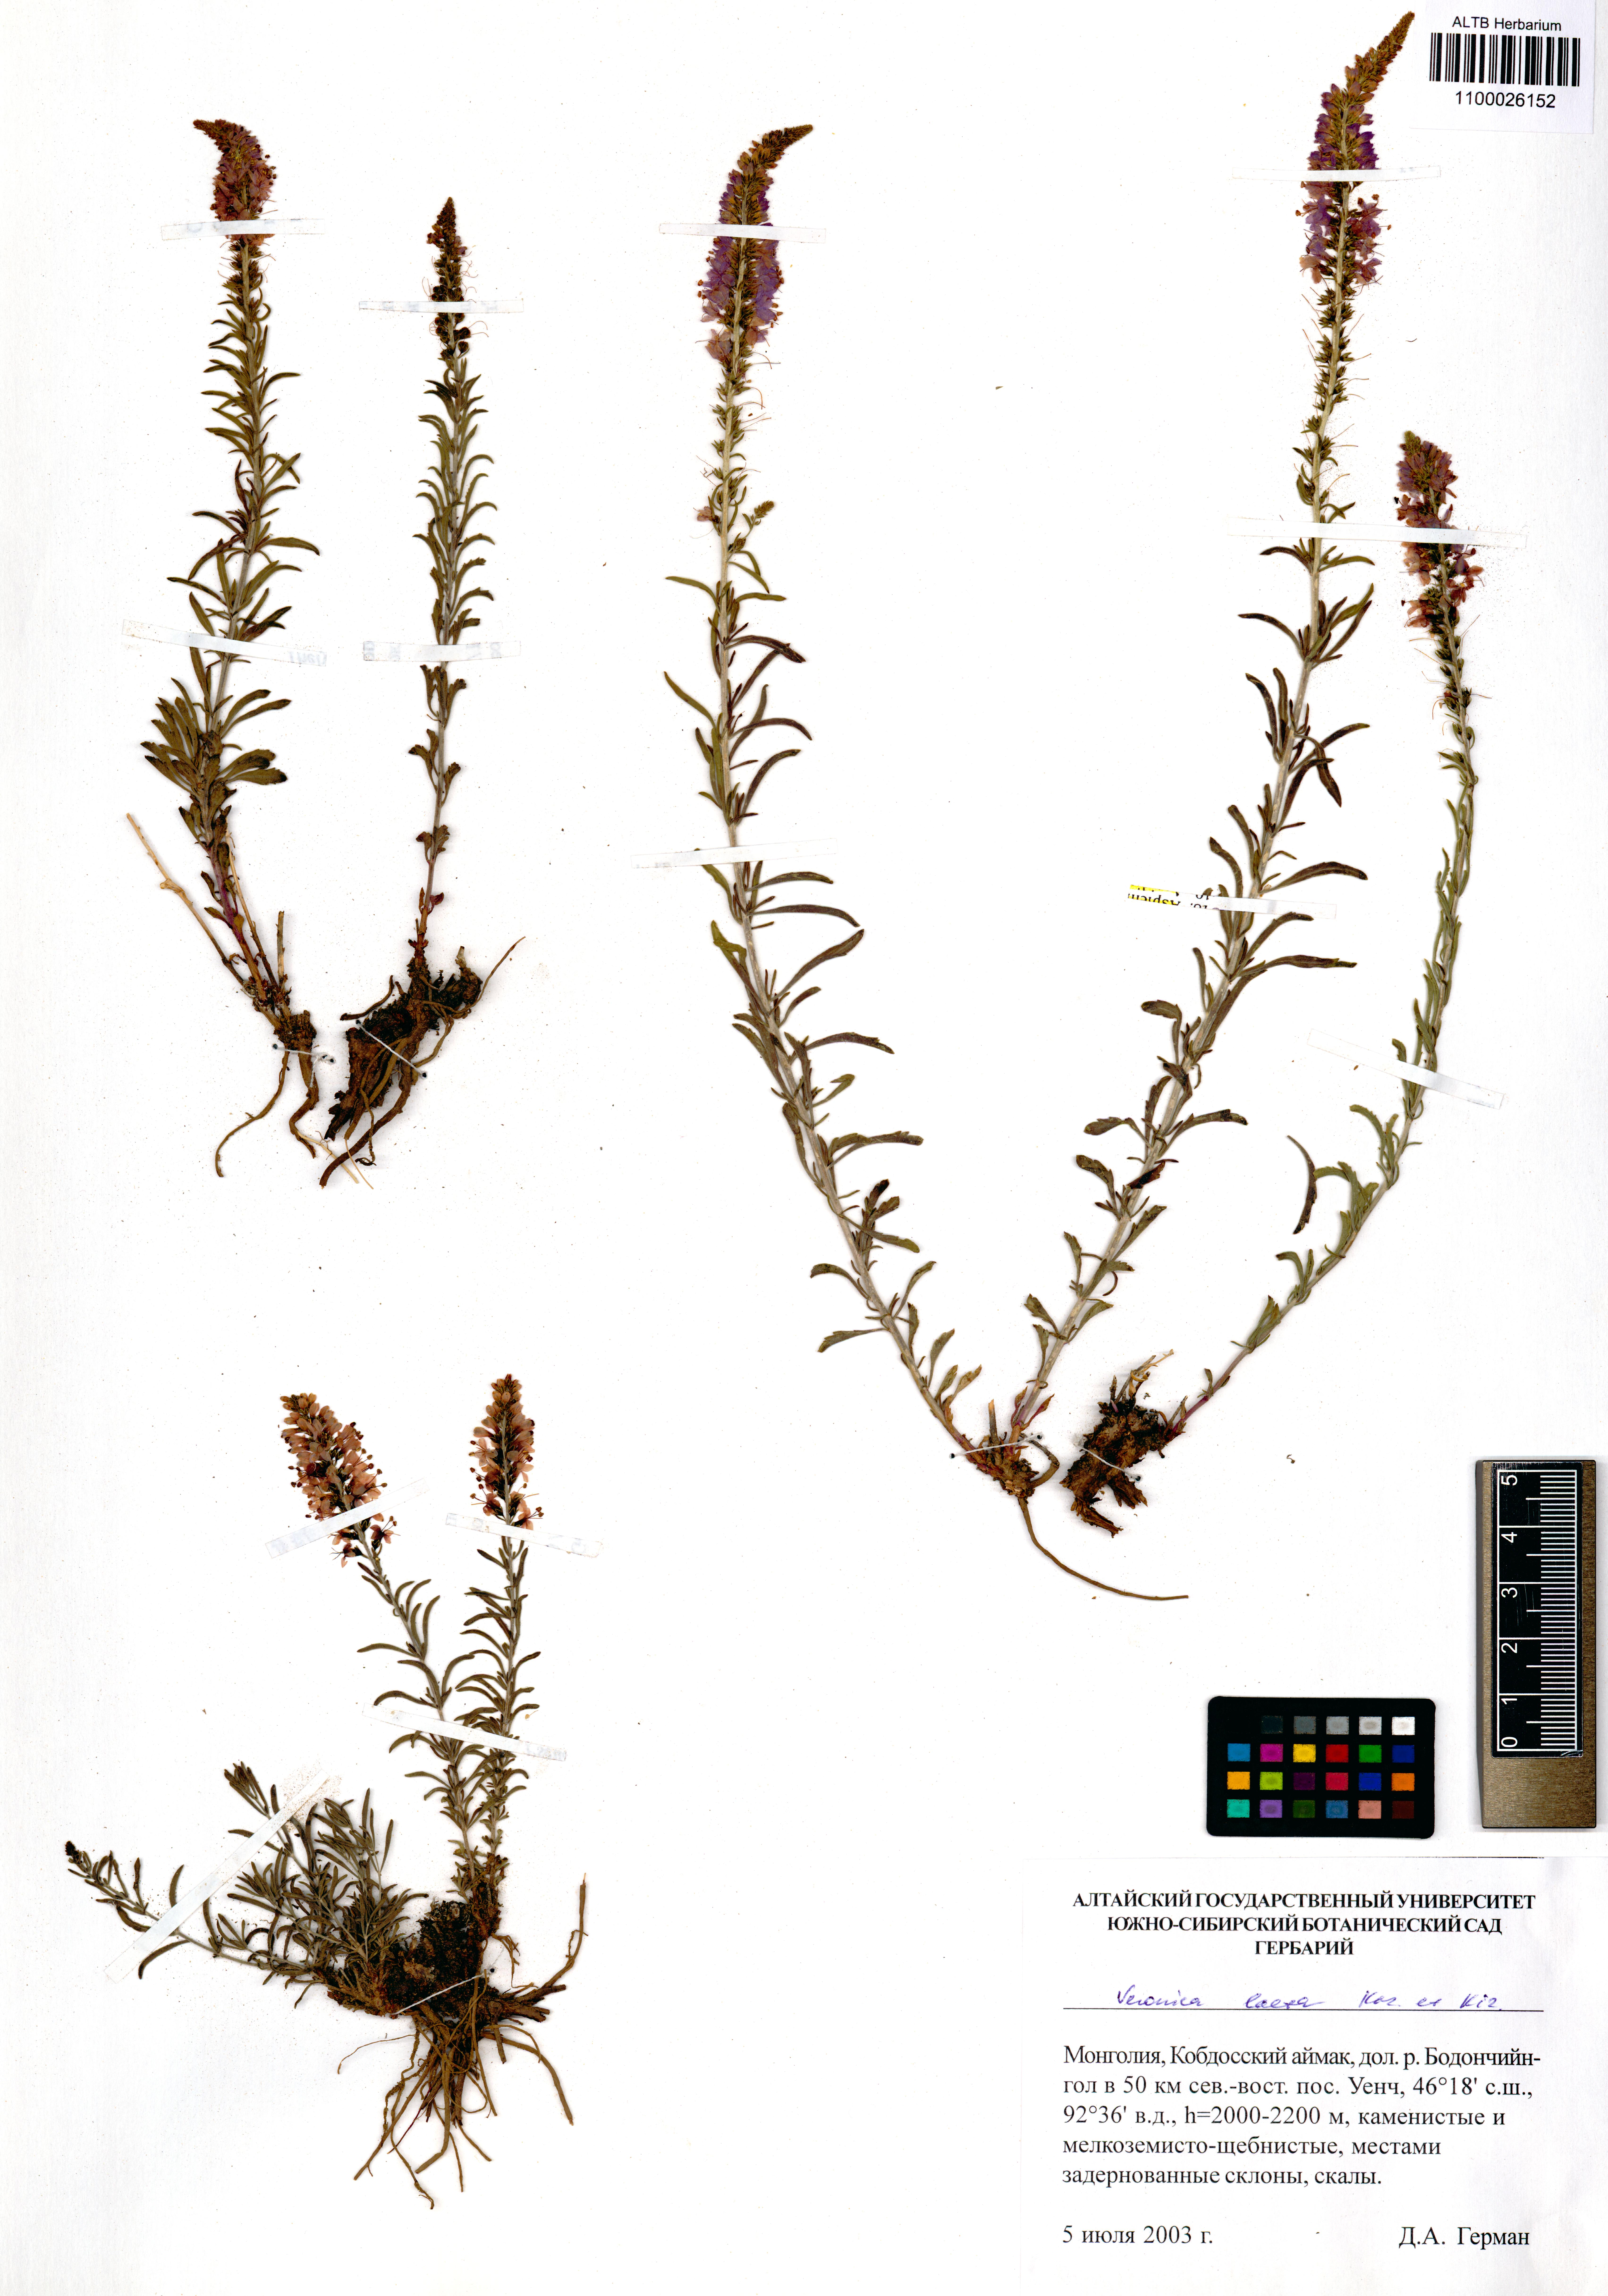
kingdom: Plantae
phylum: Tracheophyta
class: Magnoliopsida
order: Lamiales
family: Plantaginaceae
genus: Veronica
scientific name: Veronica laeta
